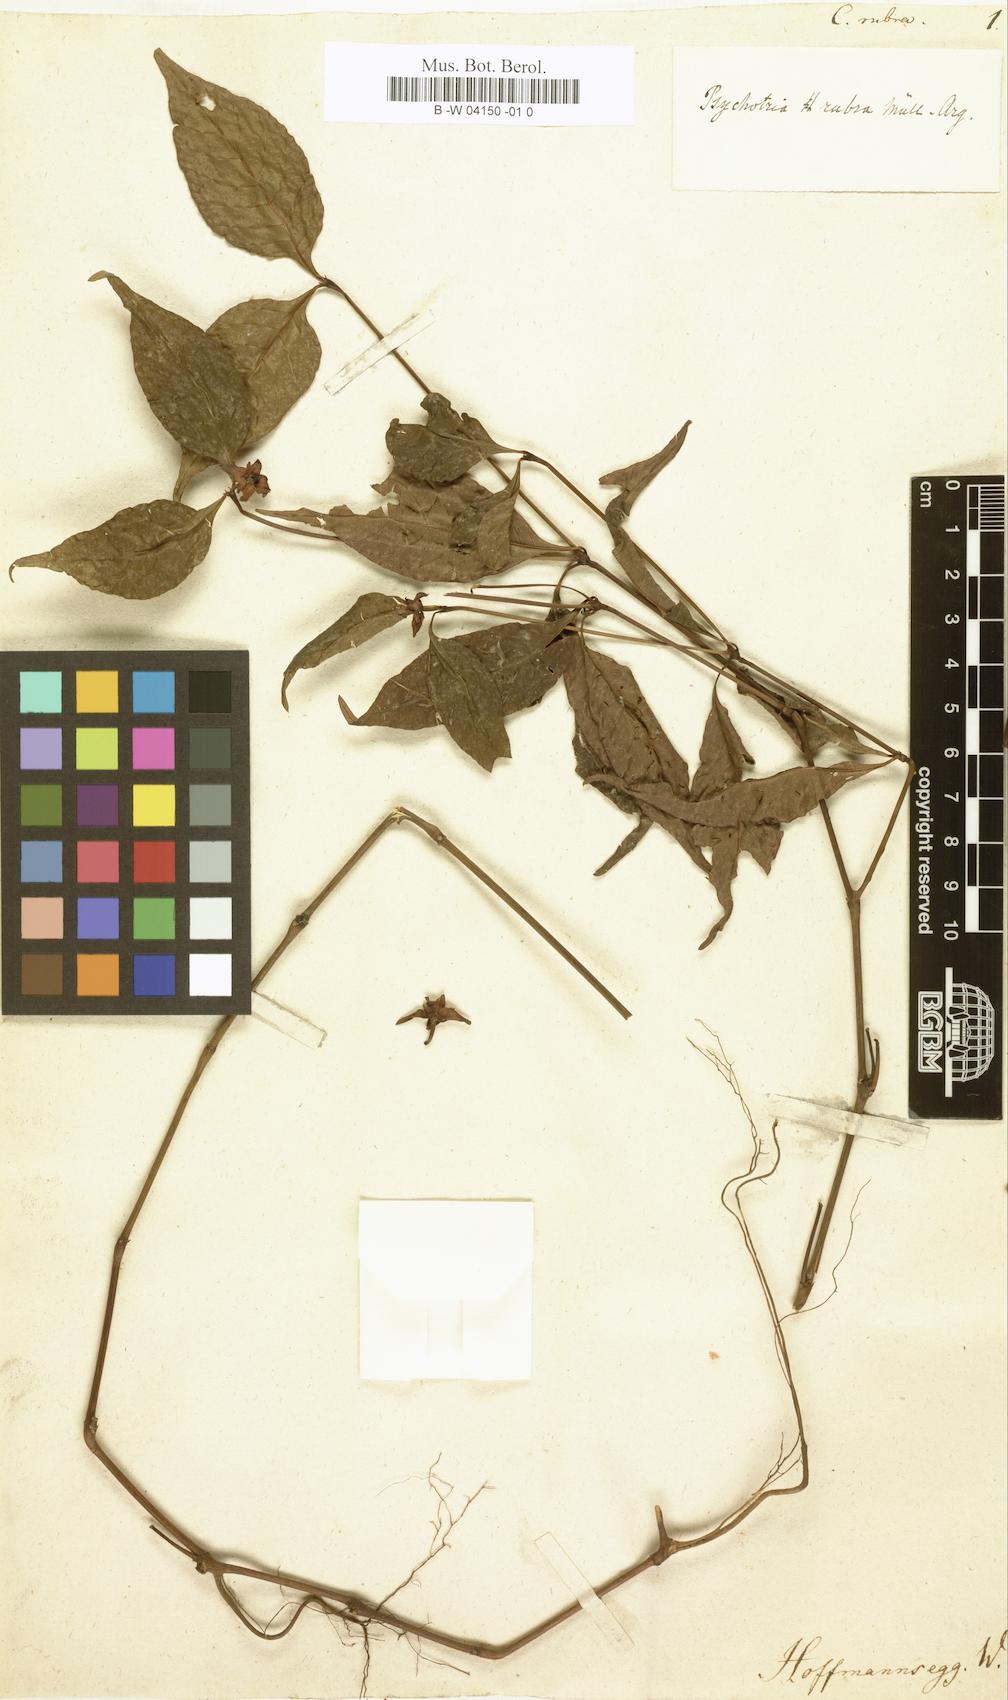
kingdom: Plantae
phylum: Tracheophyta
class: Magnoliopsida
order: Gentianales
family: Rubiaceae
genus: Palicourea
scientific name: Palicourea hoffmannseggiana
